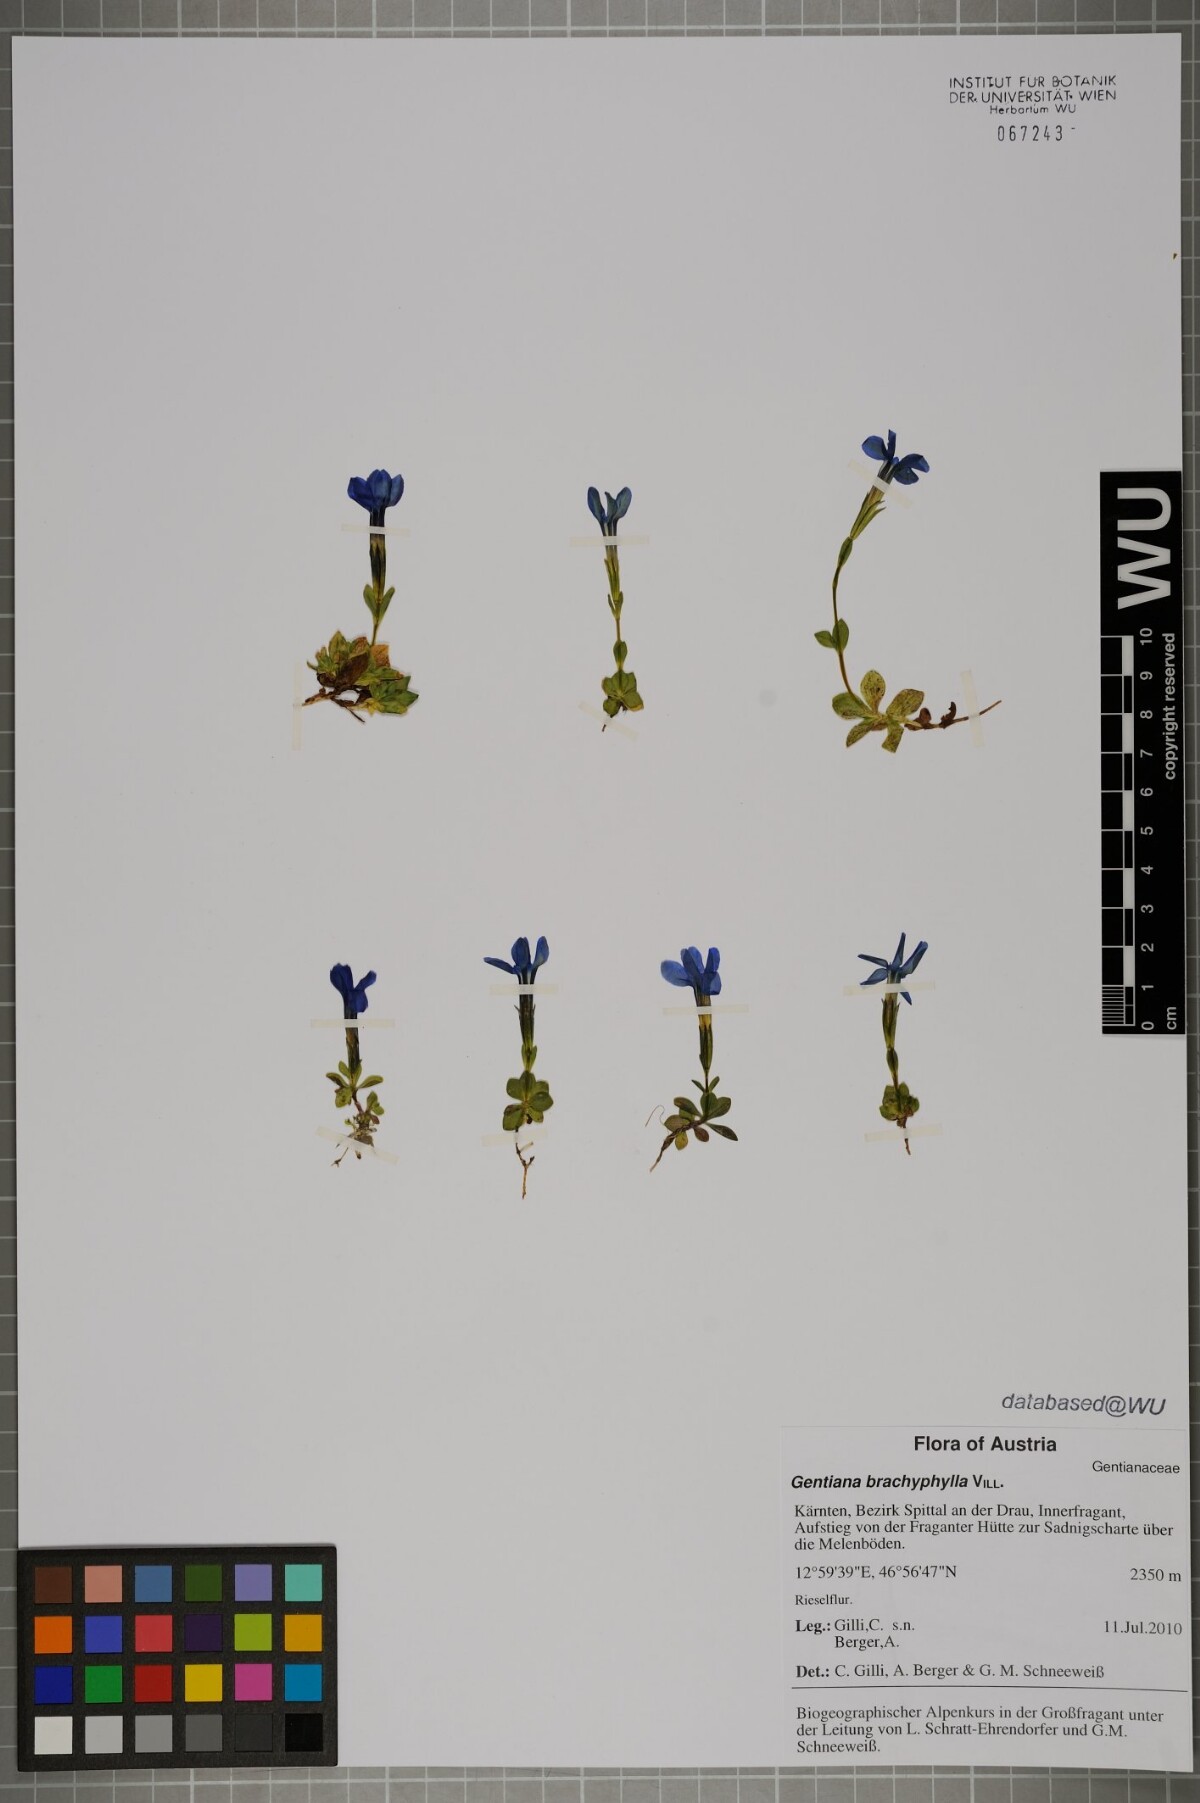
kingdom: Plantae
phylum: Tracheophyta
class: Magnoliopsida
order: Gentianales
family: Gentianaceae
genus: Gentiana
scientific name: Gentiana brachyphylla
